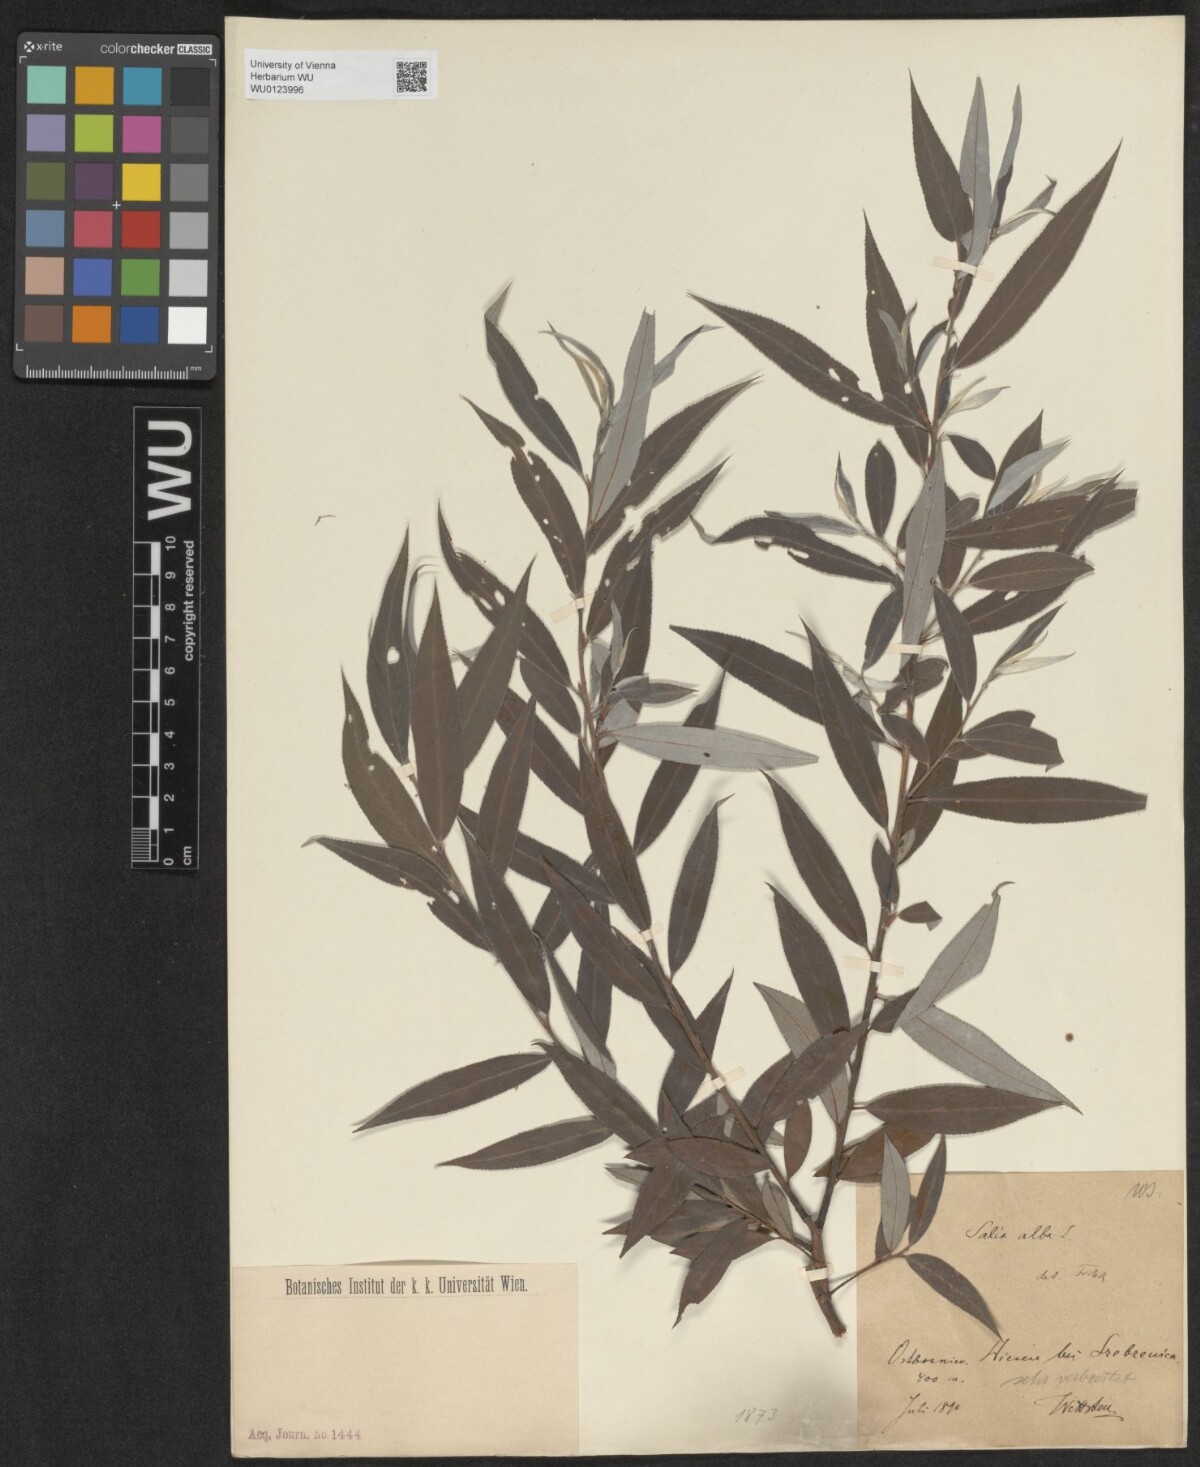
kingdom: Plantae
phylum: Tracheophyta
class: Magnoliopsida
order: Malpighiales
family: Salicaceae
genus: Salix
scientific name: Salix alba
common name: White willow
